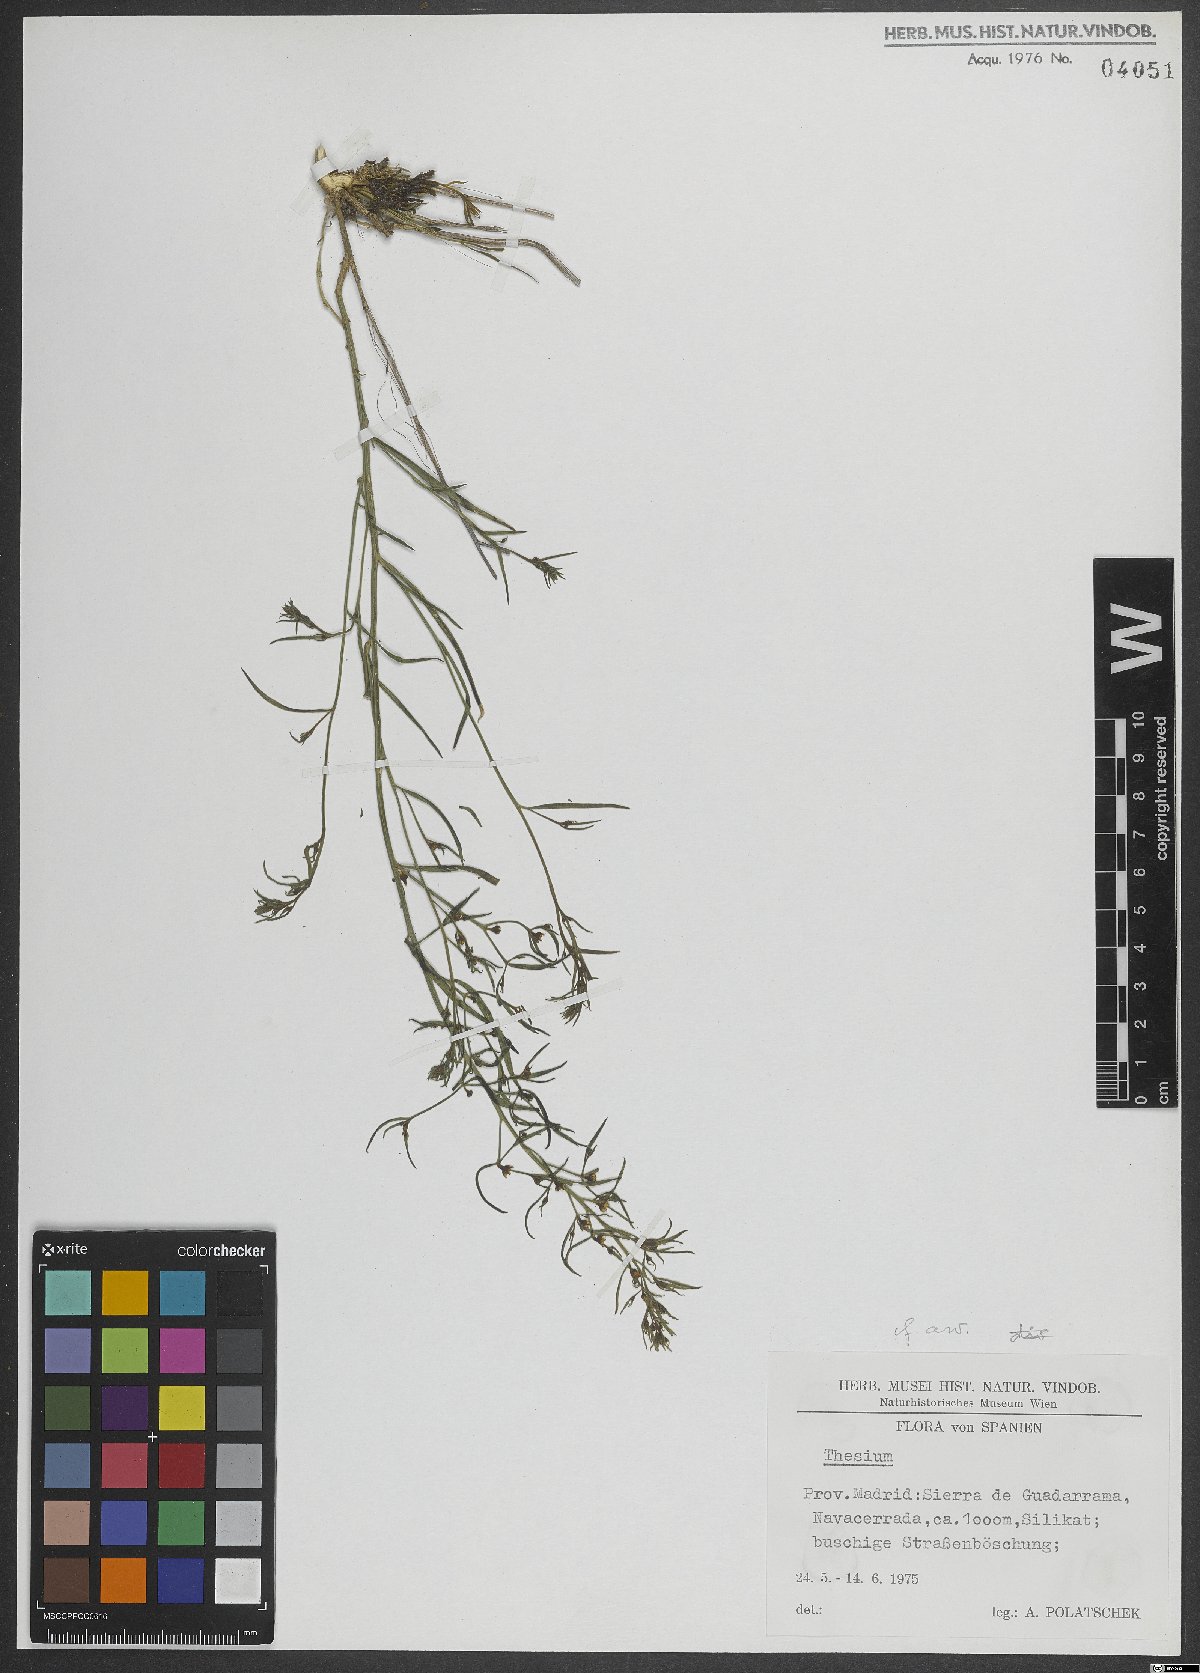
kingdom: Plantae
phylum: Tracheophyta
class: Magnoliopsida
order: Santalales
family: Thesiaceae
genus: Thesium
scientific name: Thesium
